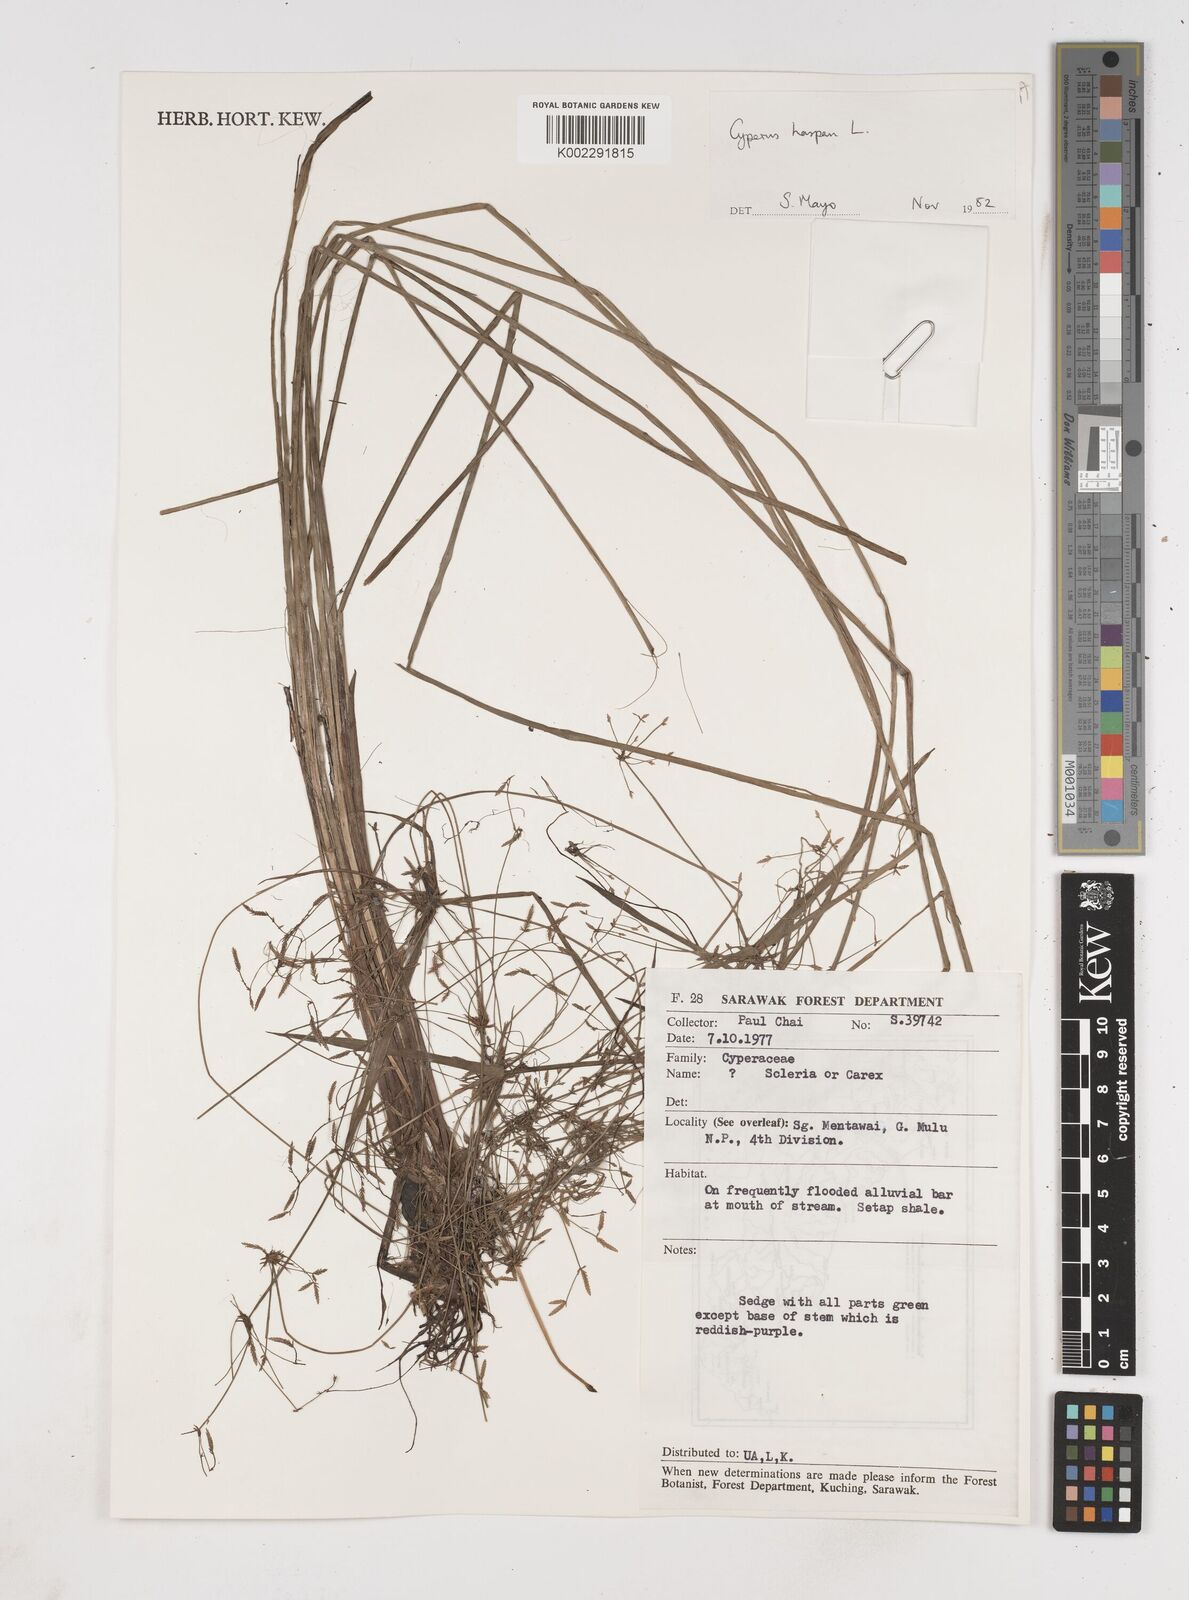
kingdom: Plantae
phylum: Tracheophyta
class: Liliopsida
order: Poales
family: Cyperaceae
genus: Cyperus
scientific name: Cyperus haspan
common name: Haspan flatsedge
